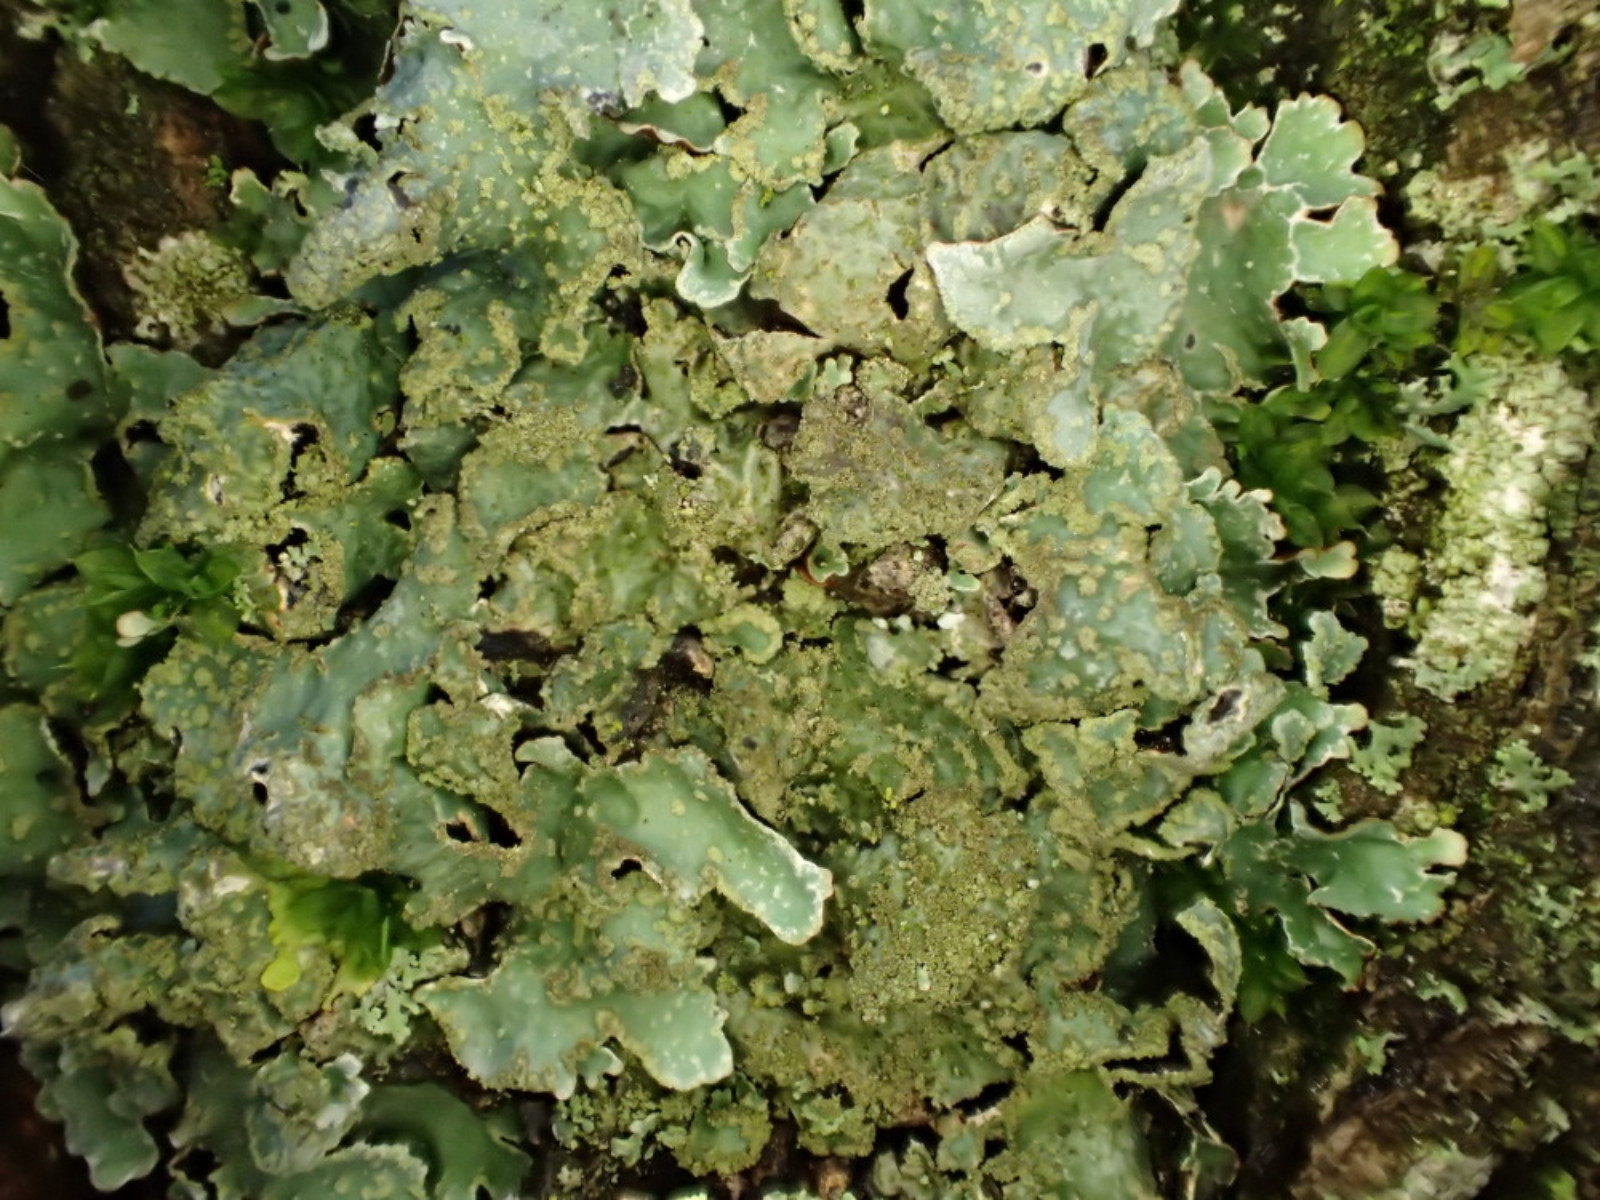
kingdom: Fungi
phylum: Ascomycota
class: Lecanoromycetes
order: Lecanorales
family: Parmeliaceae
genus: Parmelia
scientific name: Parmelia sulcata
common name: rynket skållav
